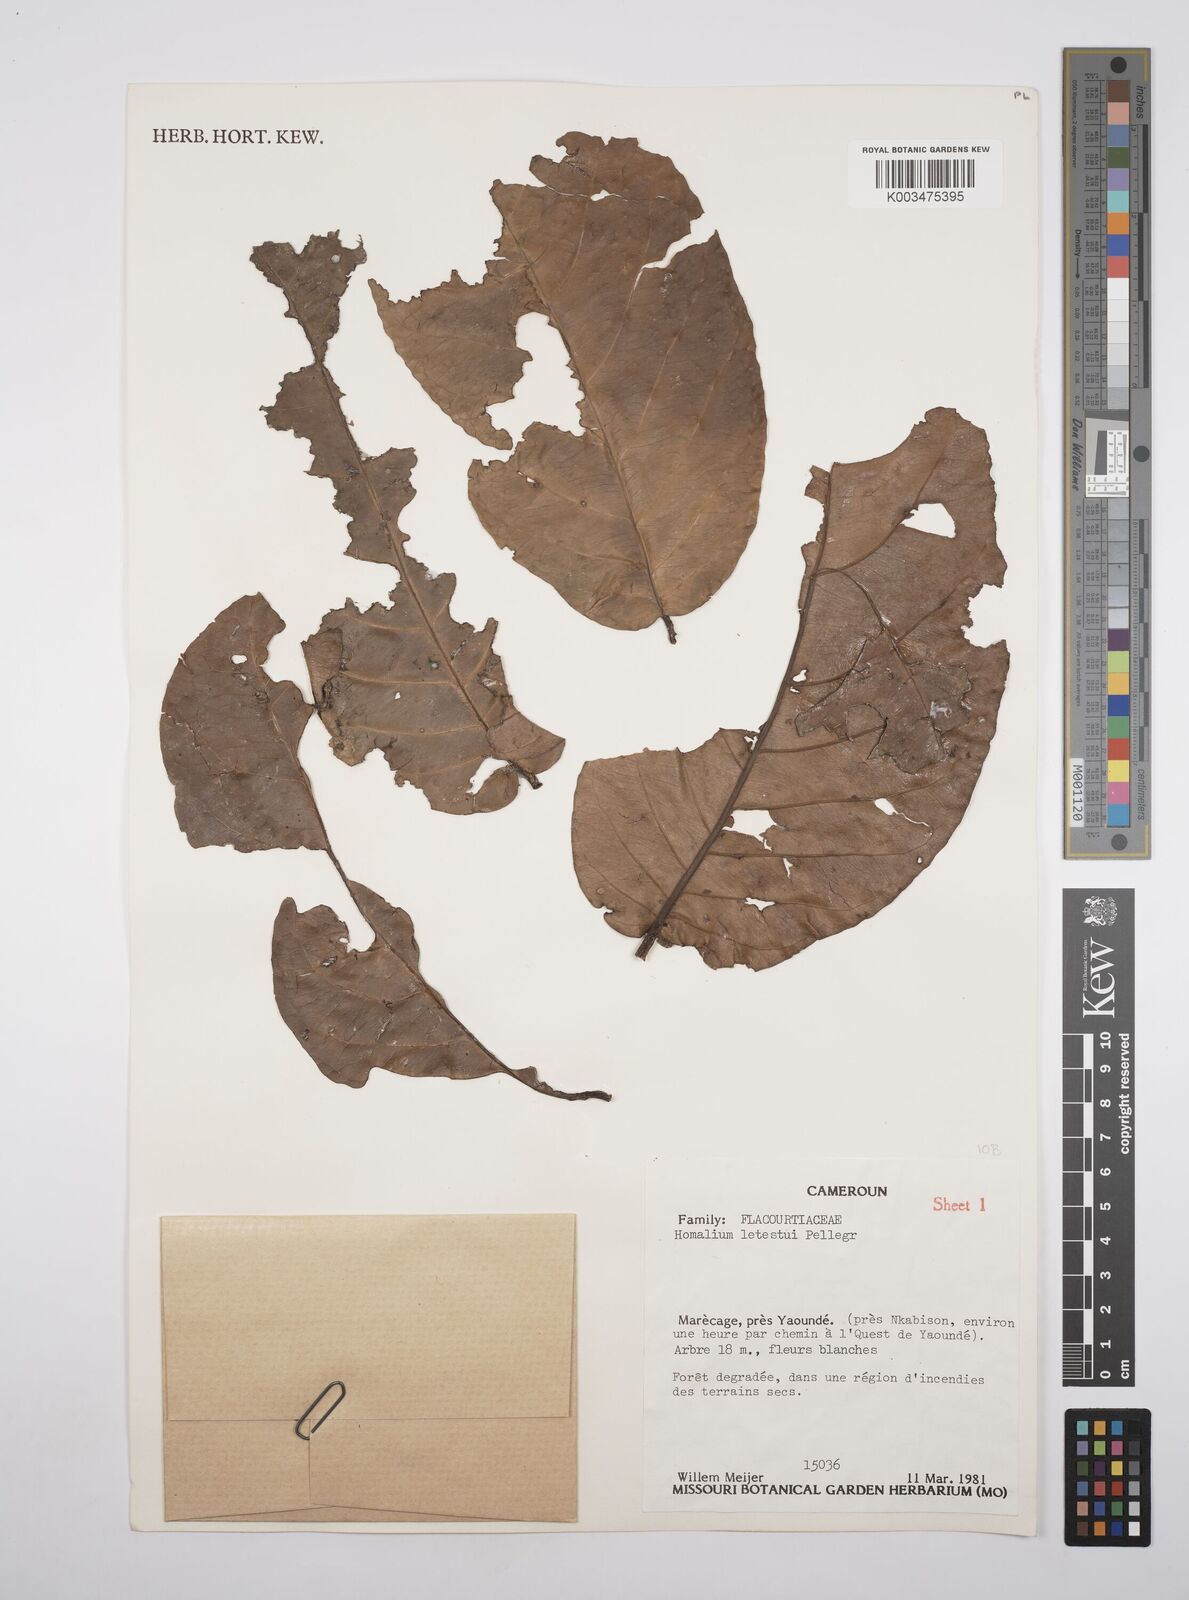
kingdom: Plantae
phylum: Tracheophyta
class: Magnoliopsida
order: Malpighiales
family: Salicaceae
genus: Homalium
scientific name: Homalium letestui
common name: African homalium
